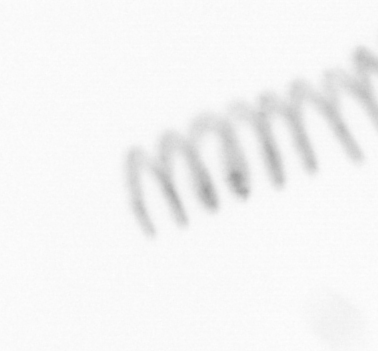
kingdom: Chromista
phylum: Ochrophyta
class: Bacillariophyceae
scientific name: Bacillariophyceae
